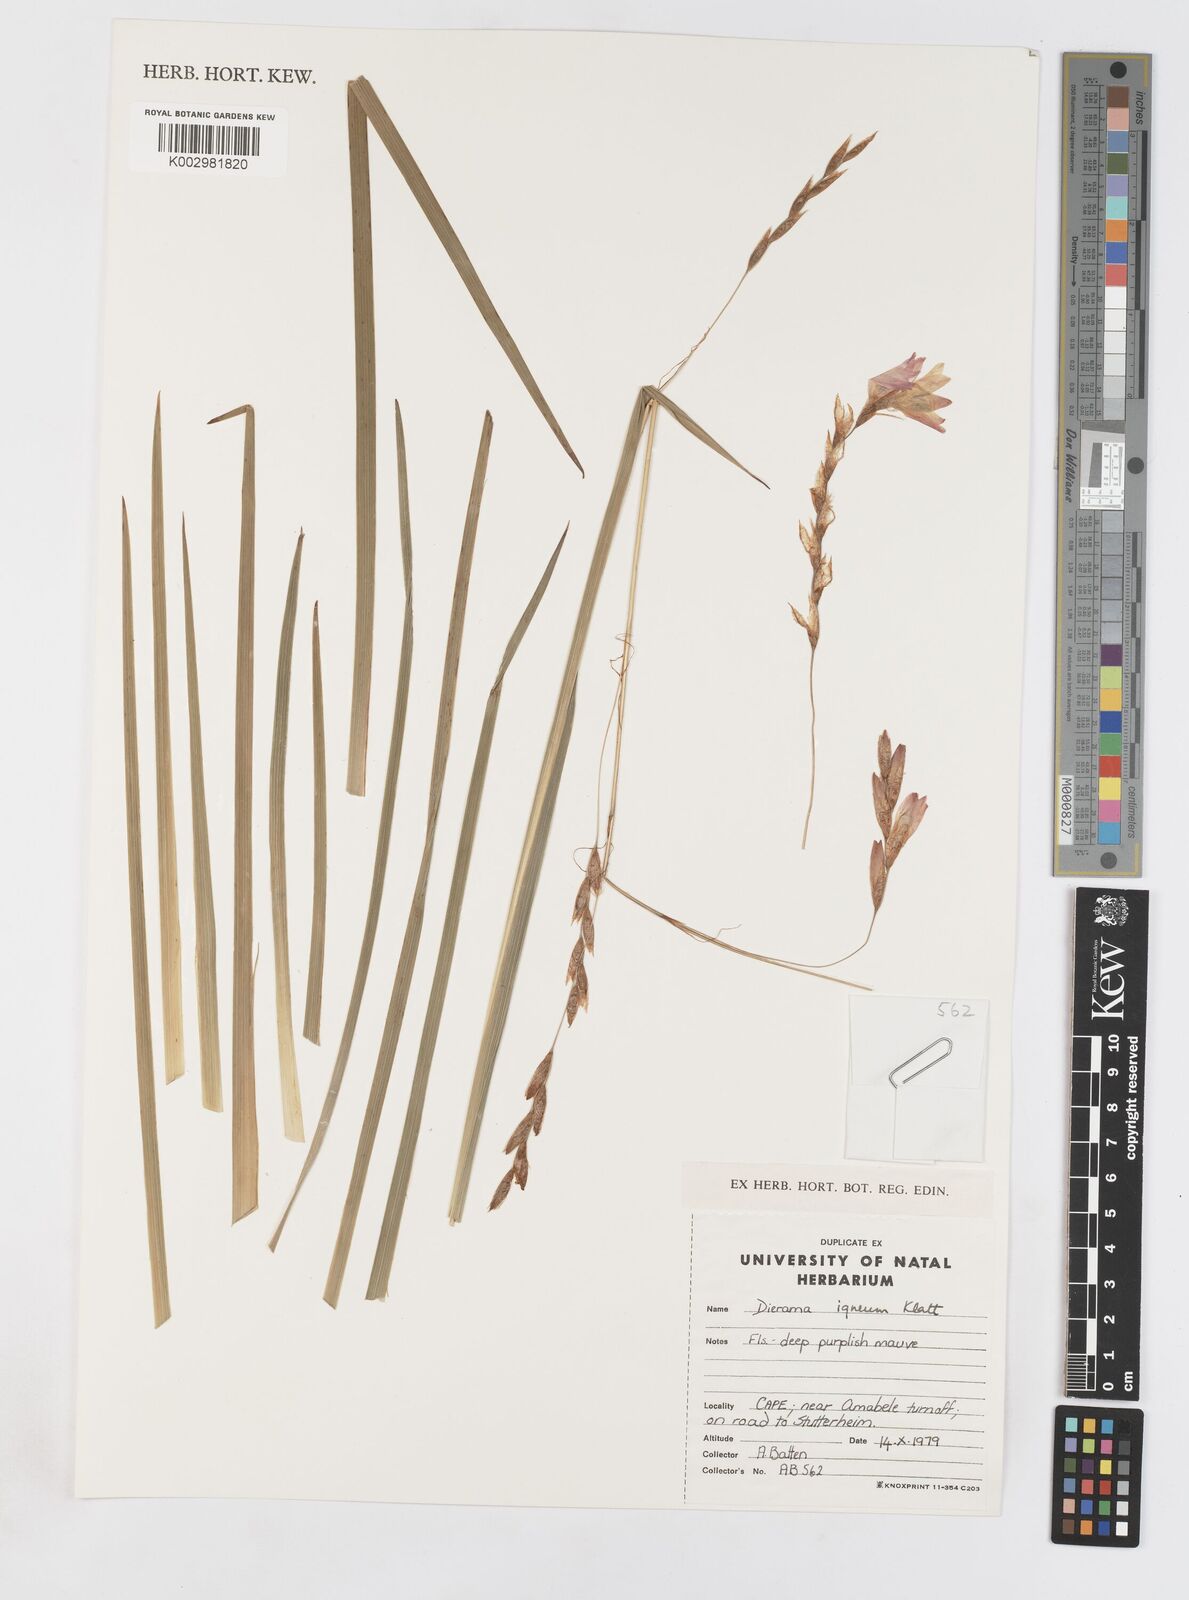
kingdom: Plantae
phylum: Tracheophyta
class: Liliopsida
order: Asparagales
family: Iridaceae
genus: Dierama
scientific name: Dierama igneum
